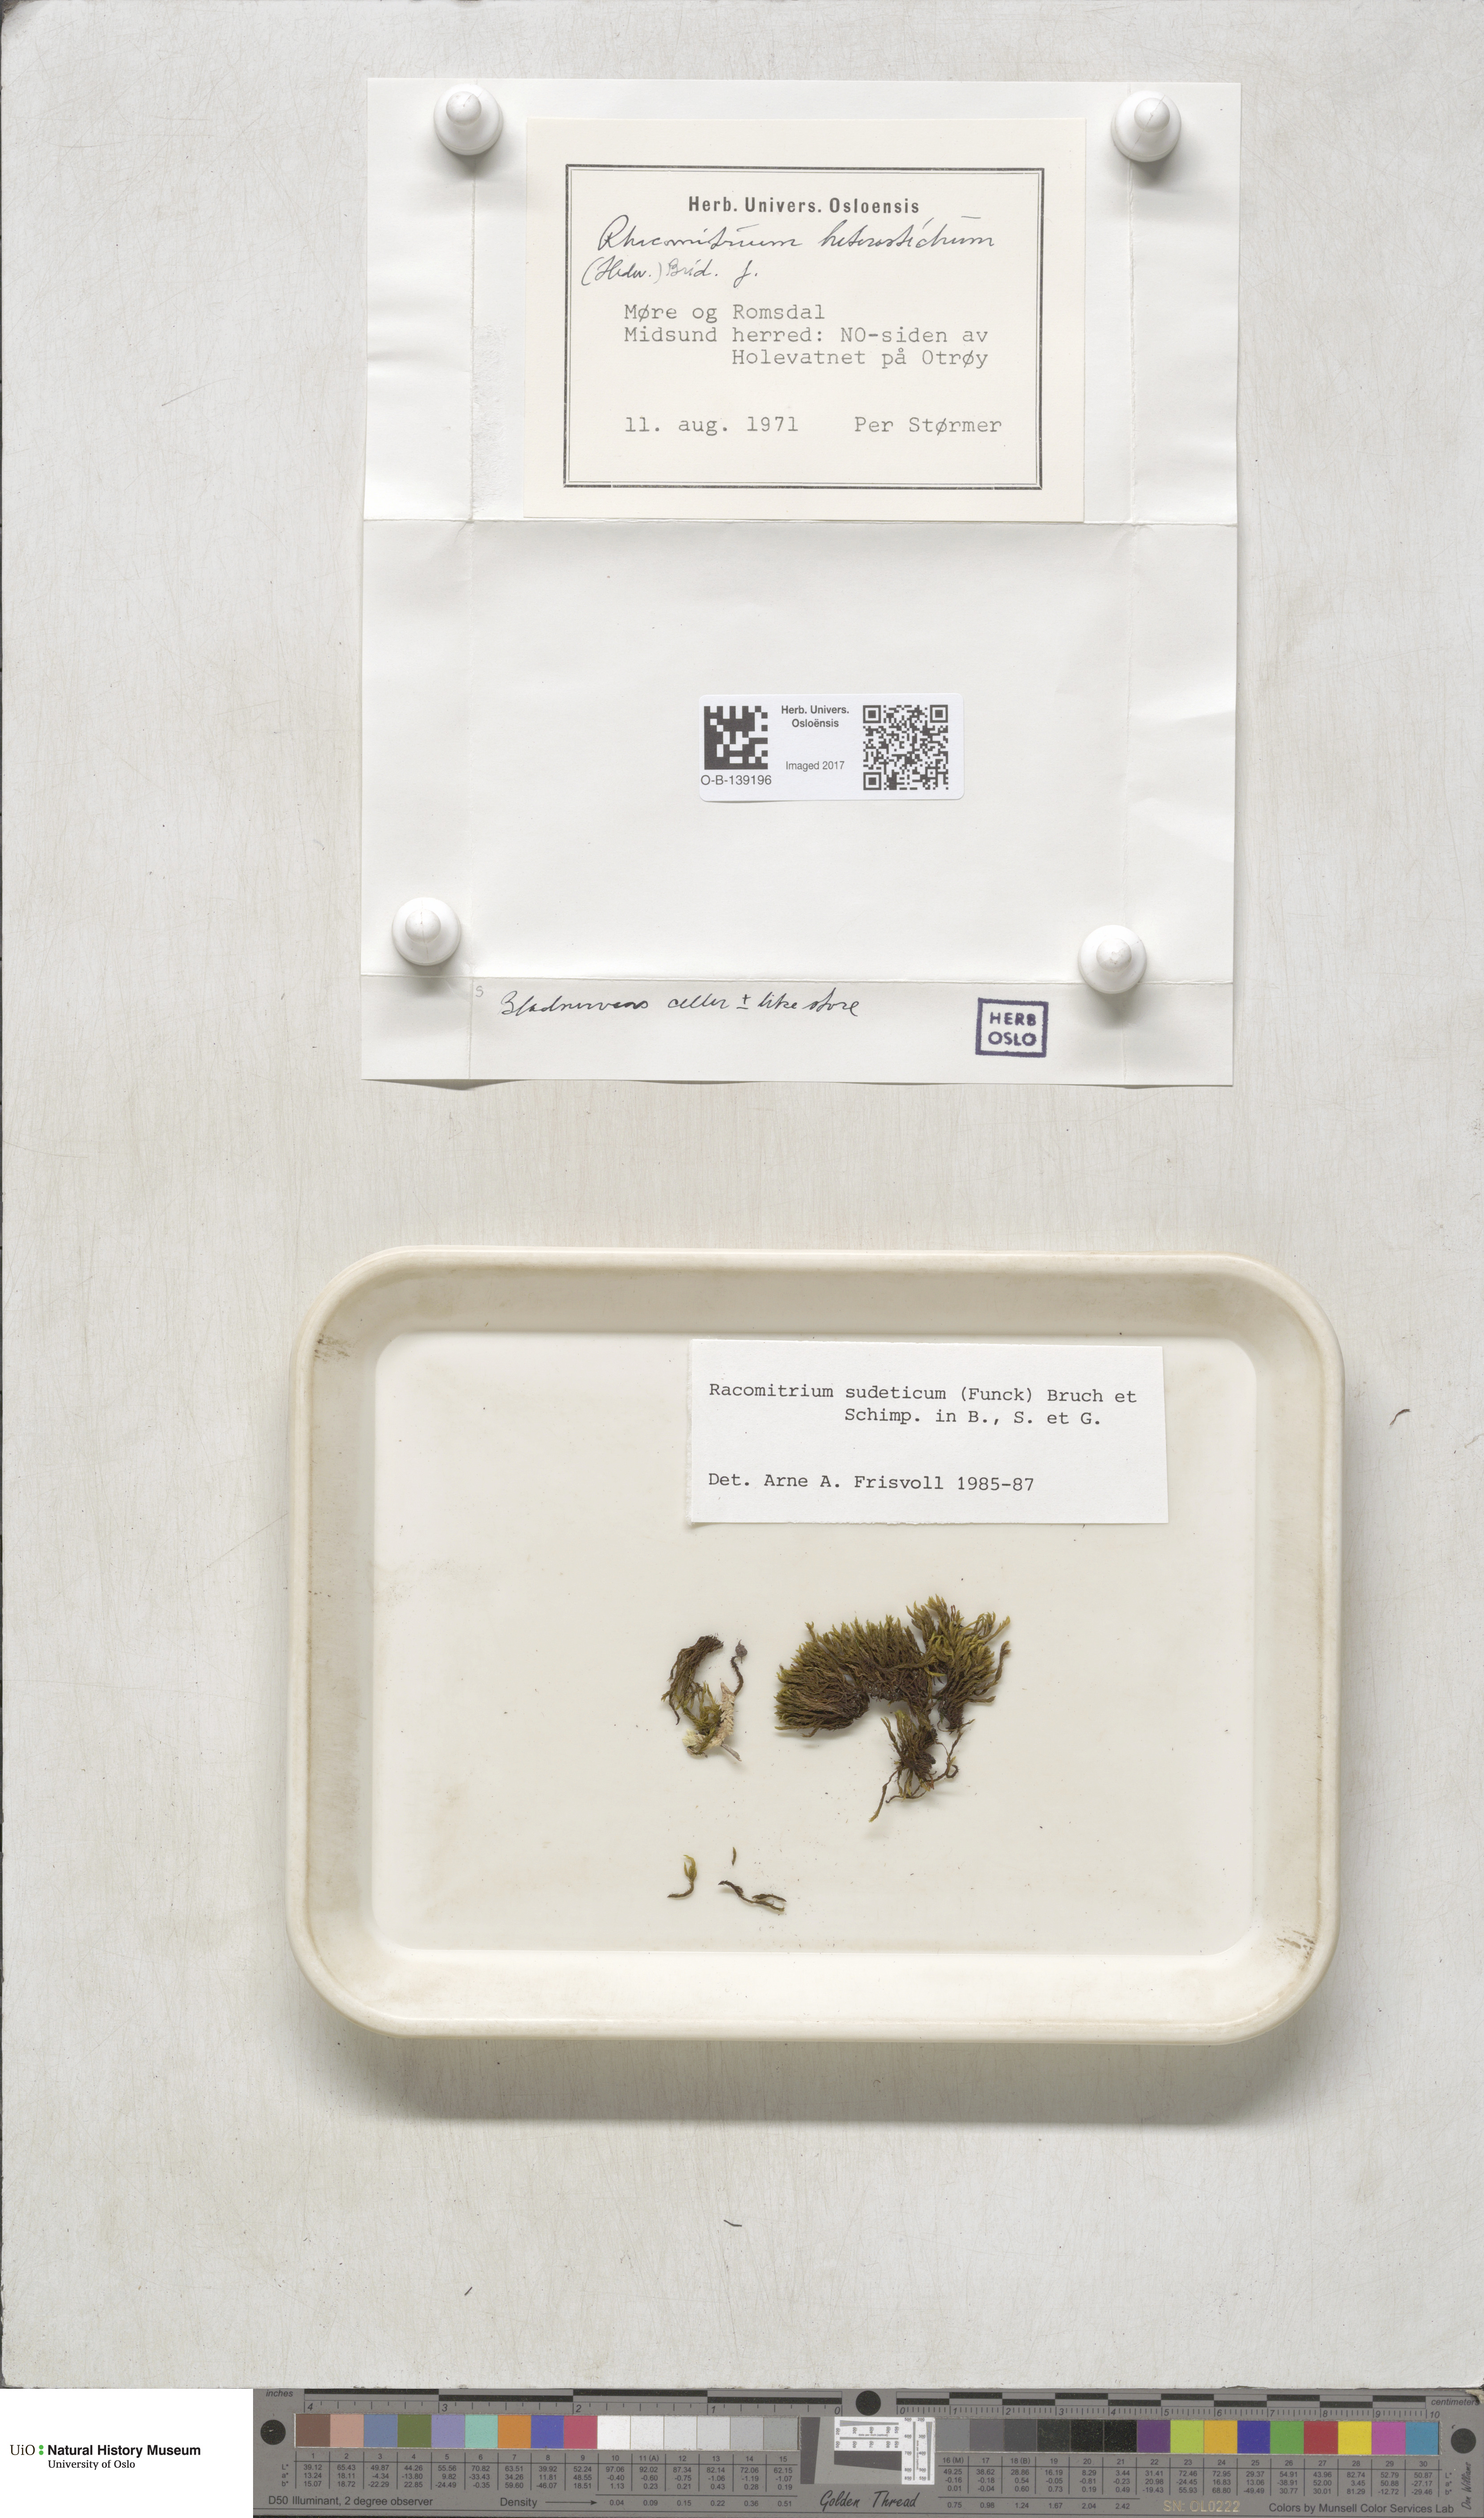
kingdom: Plantae
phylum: Bryophyta
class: Bryopsida
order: Grimmiales
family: Grimmiaceae
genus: Bucklandiella
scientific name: Bucklandiella sudetica
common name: Slender fringe-moss
